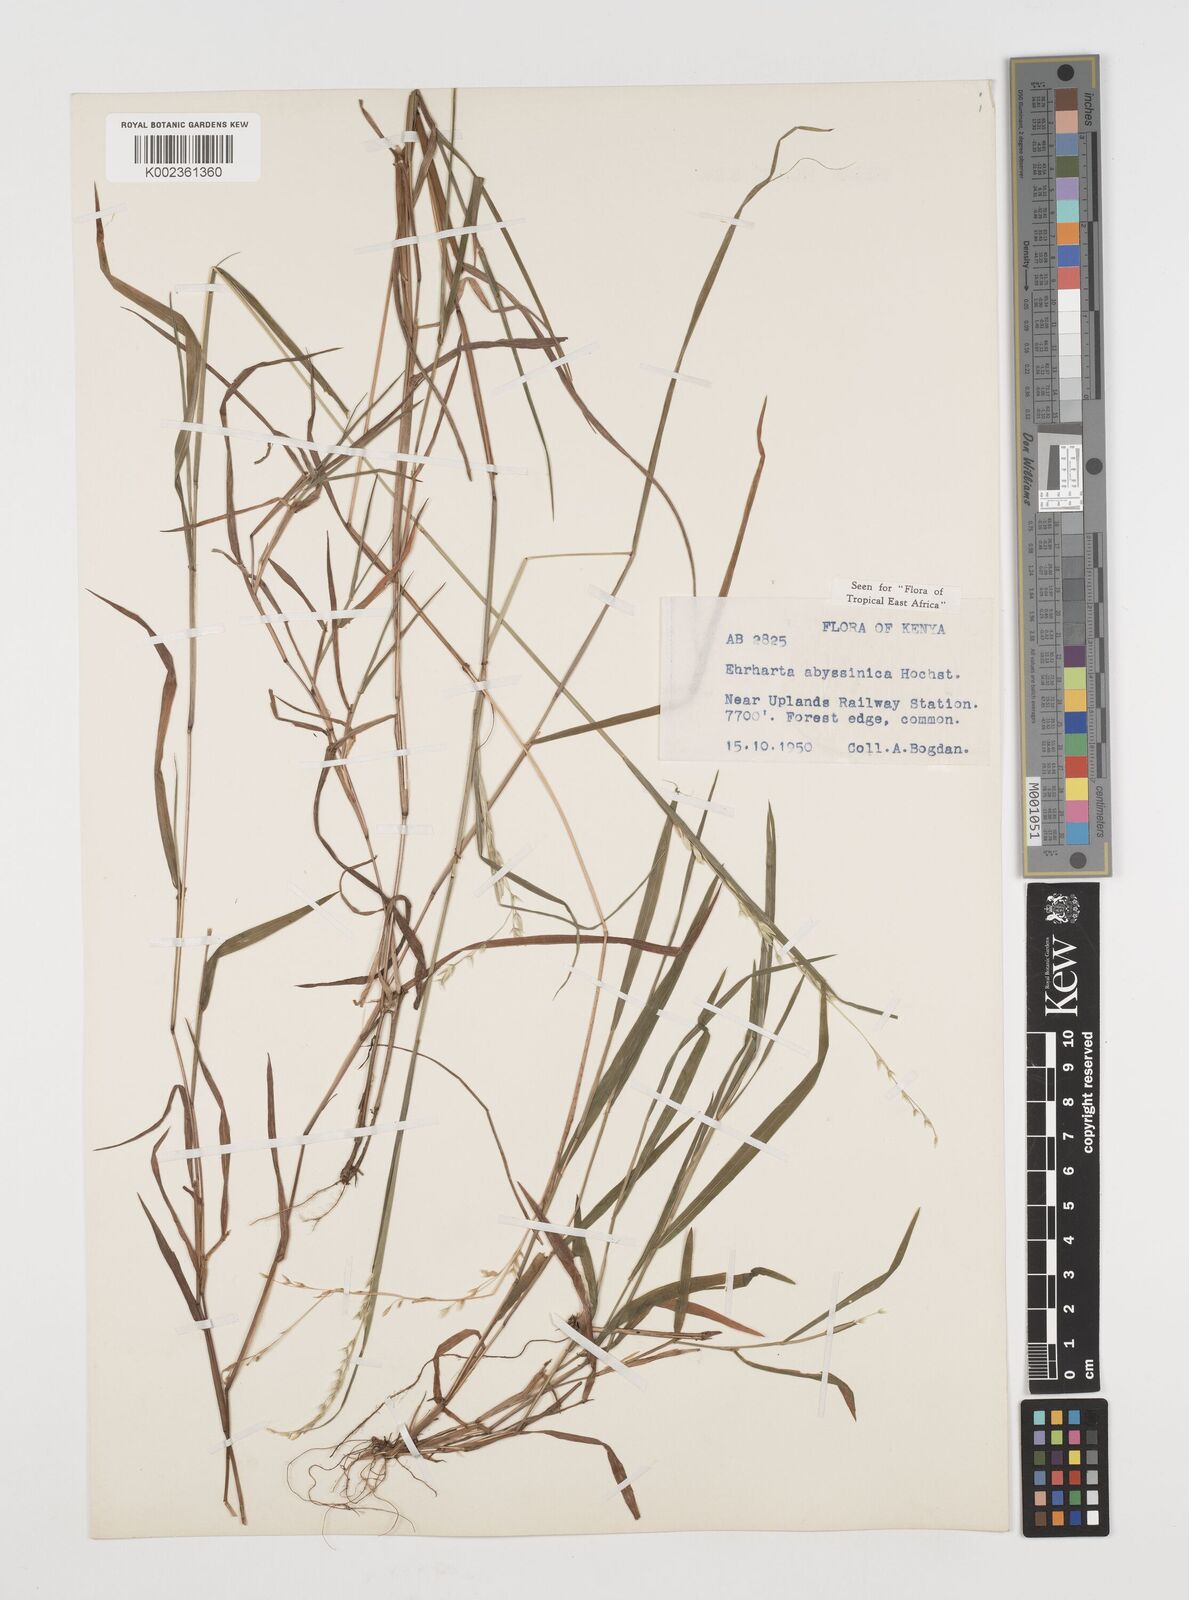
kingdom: Plantae
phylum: Tracheophyta
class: Liliopsida
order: Poales
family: Poaceae
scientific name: Poaceae
